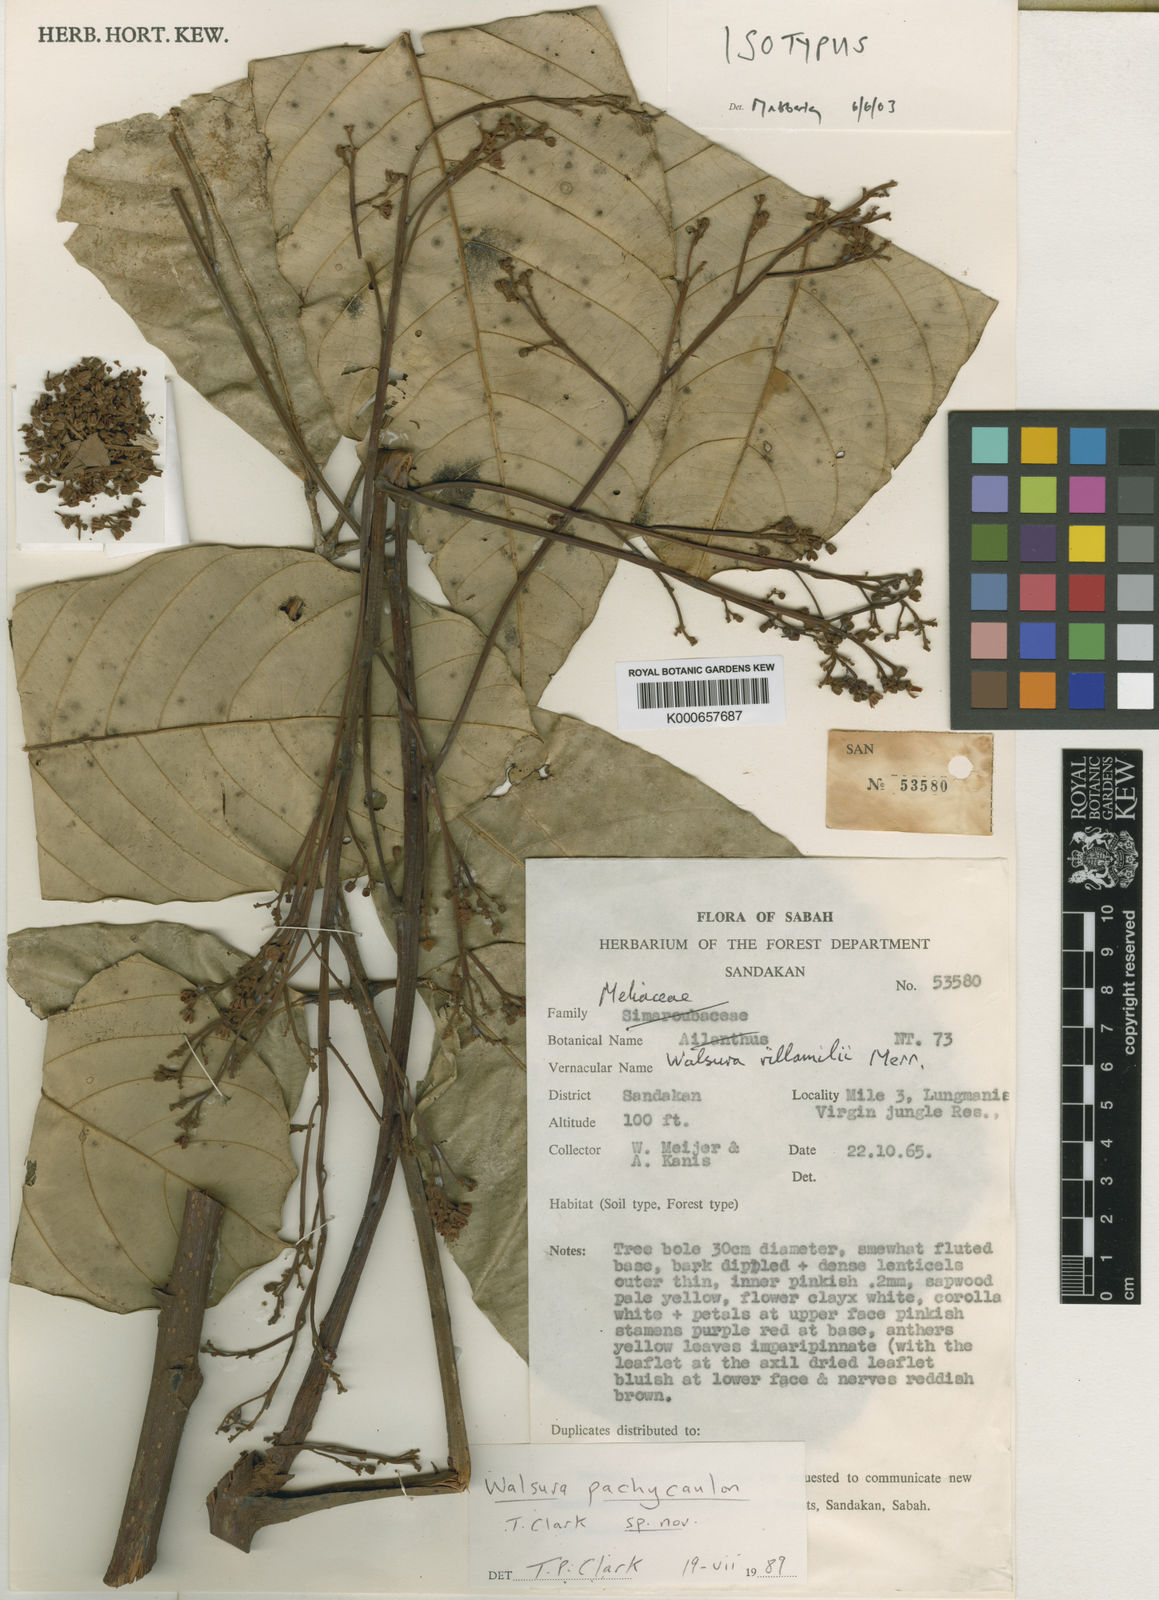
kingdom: Plantae
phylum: Tracheophyta
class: Magnoliopsida
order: Sapindales
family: Meliaceae
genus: Walsura
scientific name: Walsura pachycaulon
